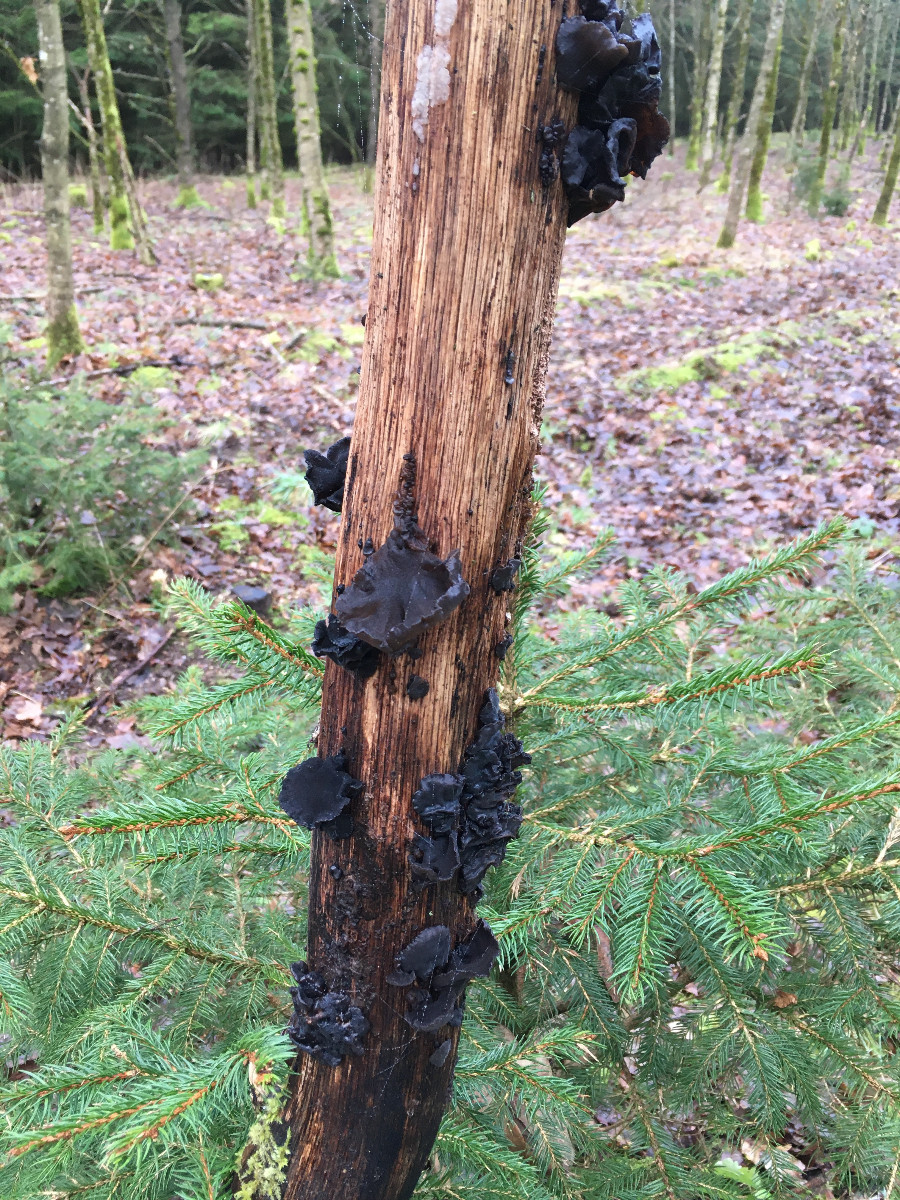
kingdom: Fungi
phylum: Basidiomycota
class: Agaricomycetes
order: Auriculariales
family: Auriculariaceae
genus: Exidia
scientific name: Exidia glandulosa
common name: ege-bævretop
